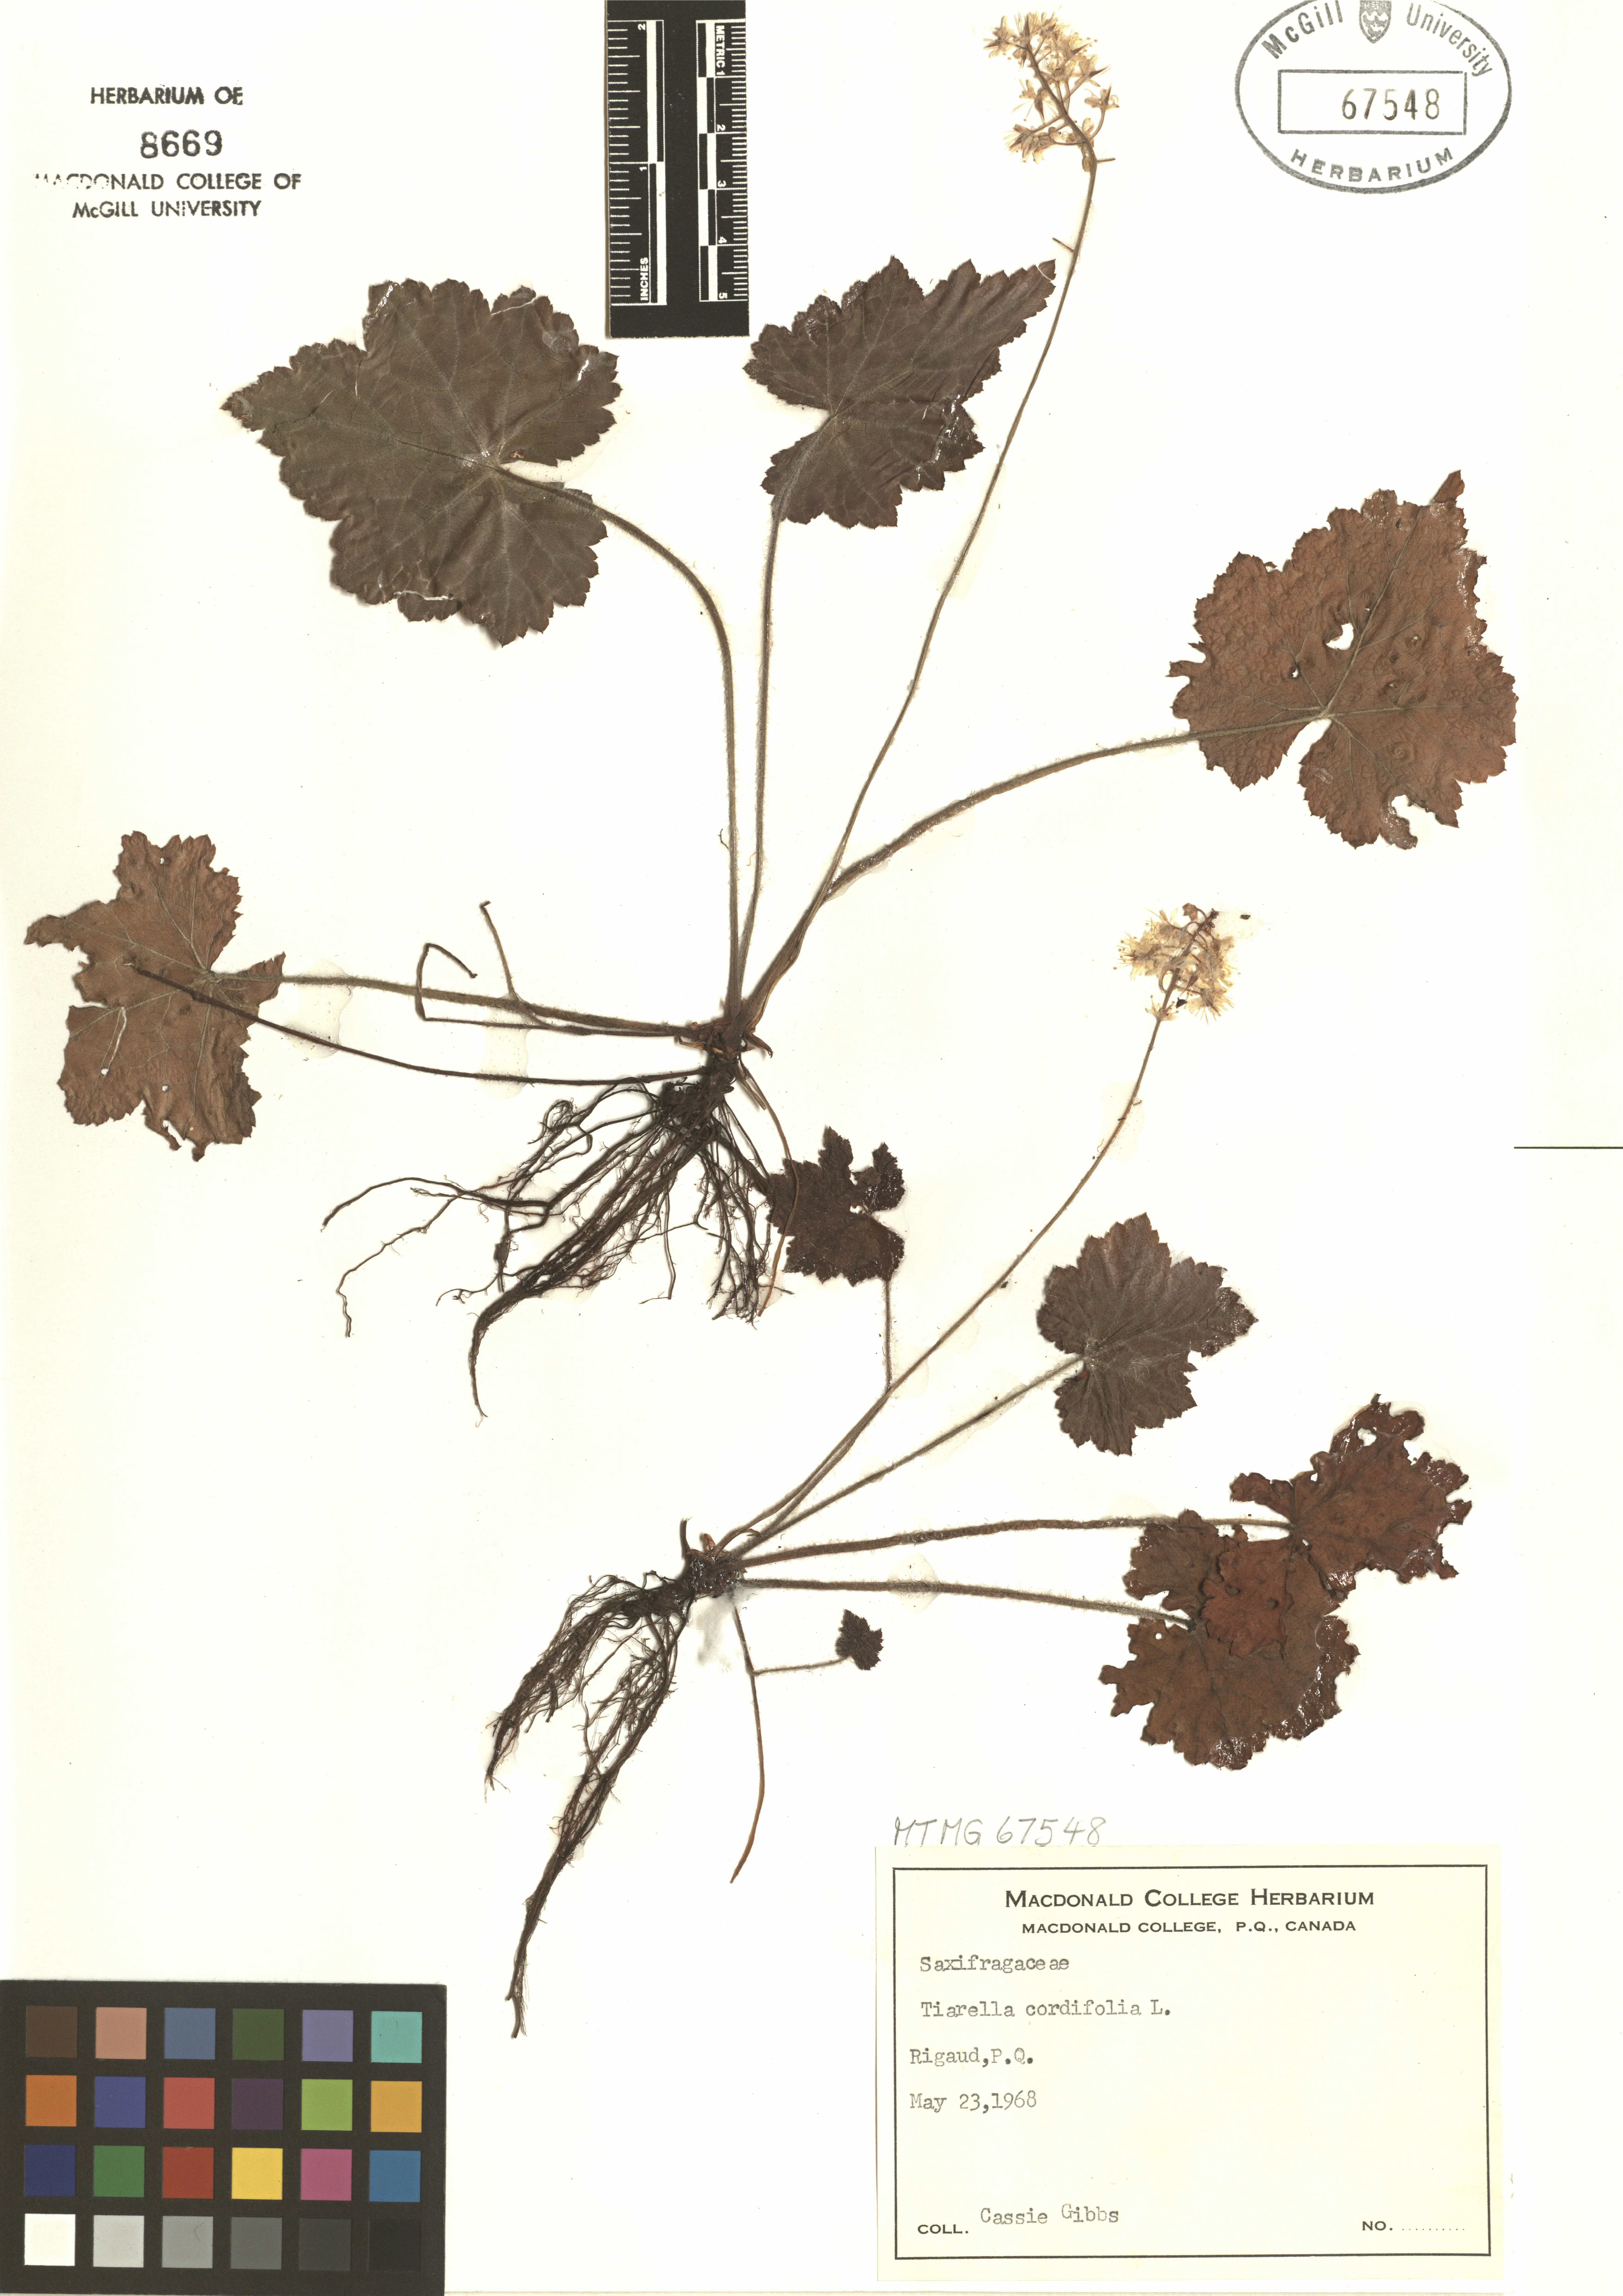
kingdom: Plantae
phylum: Tracheophyta
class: Magnoliopsida
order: Saxifragales
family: Saxifragaceae
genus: Tiarella
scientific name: Tiarella cordifolia
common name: Foamflower
